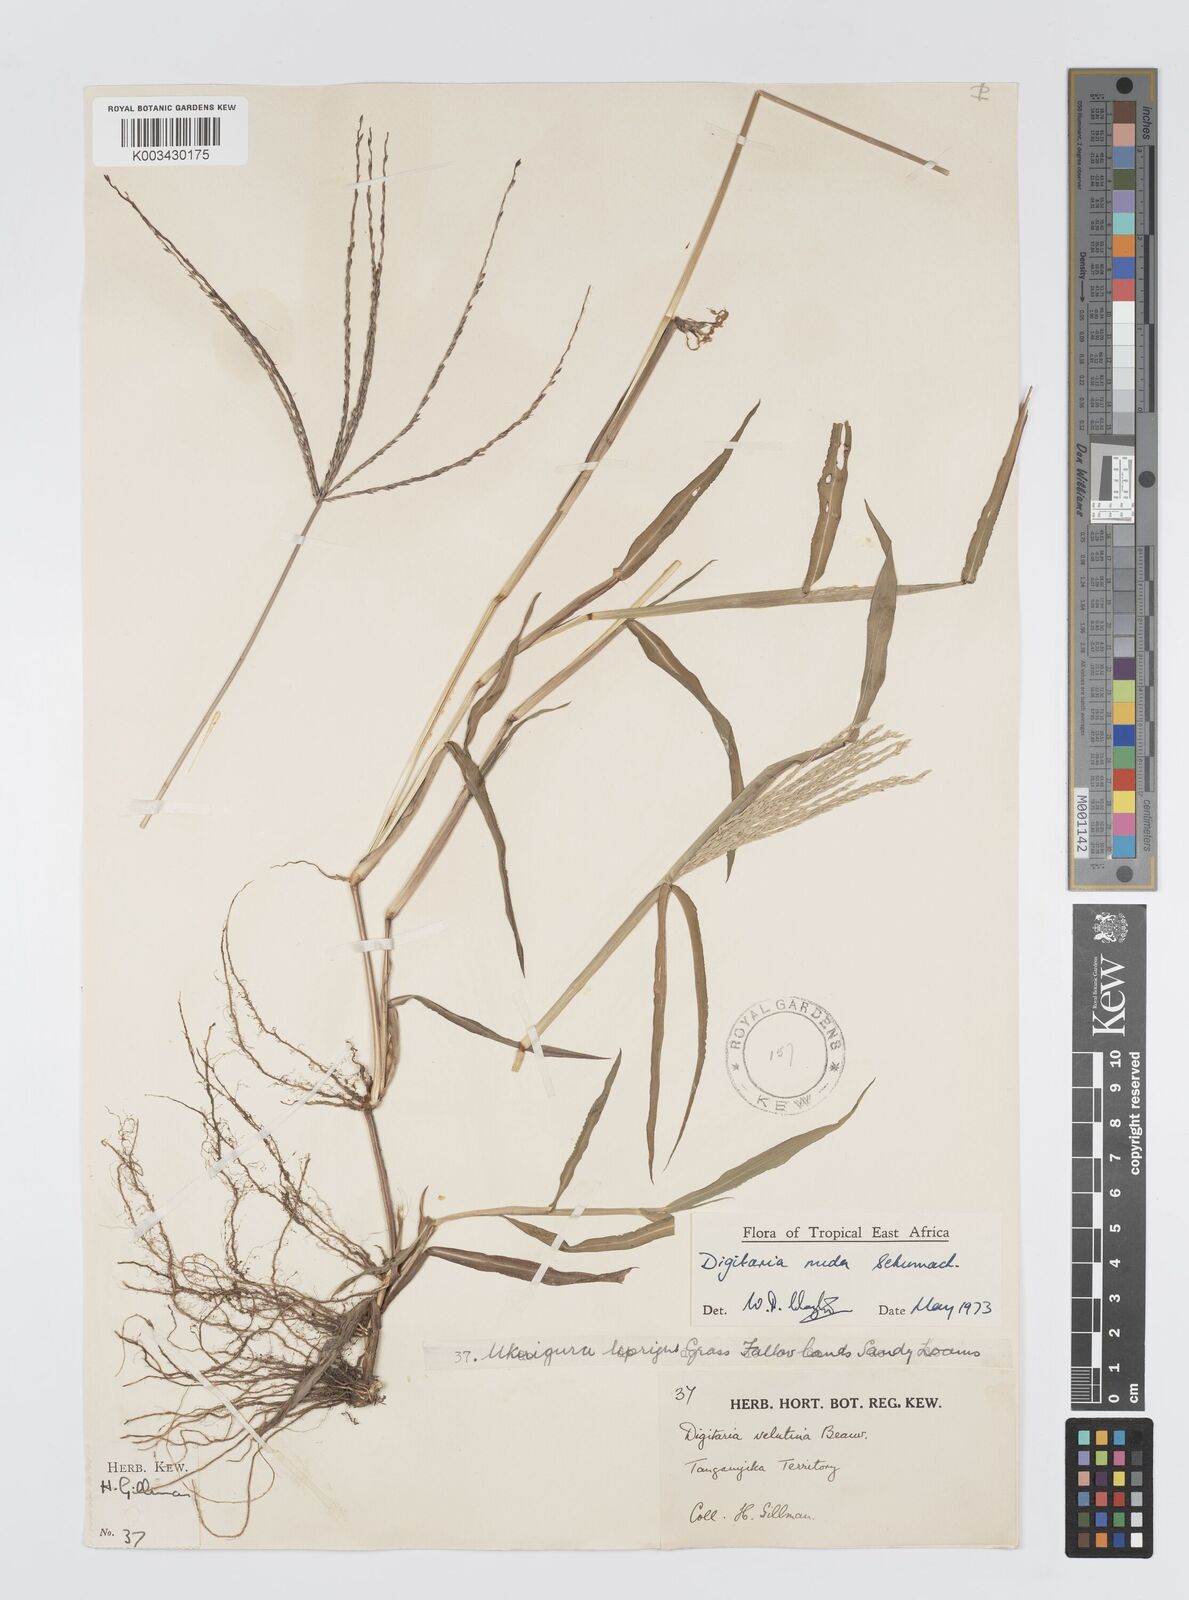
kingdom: Plantae
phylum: Tracheophyta
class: Liliopsida
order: Poales
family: Poaceae
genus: Digitaria
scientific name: Digitaria nuda
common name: Naked crabgrass
